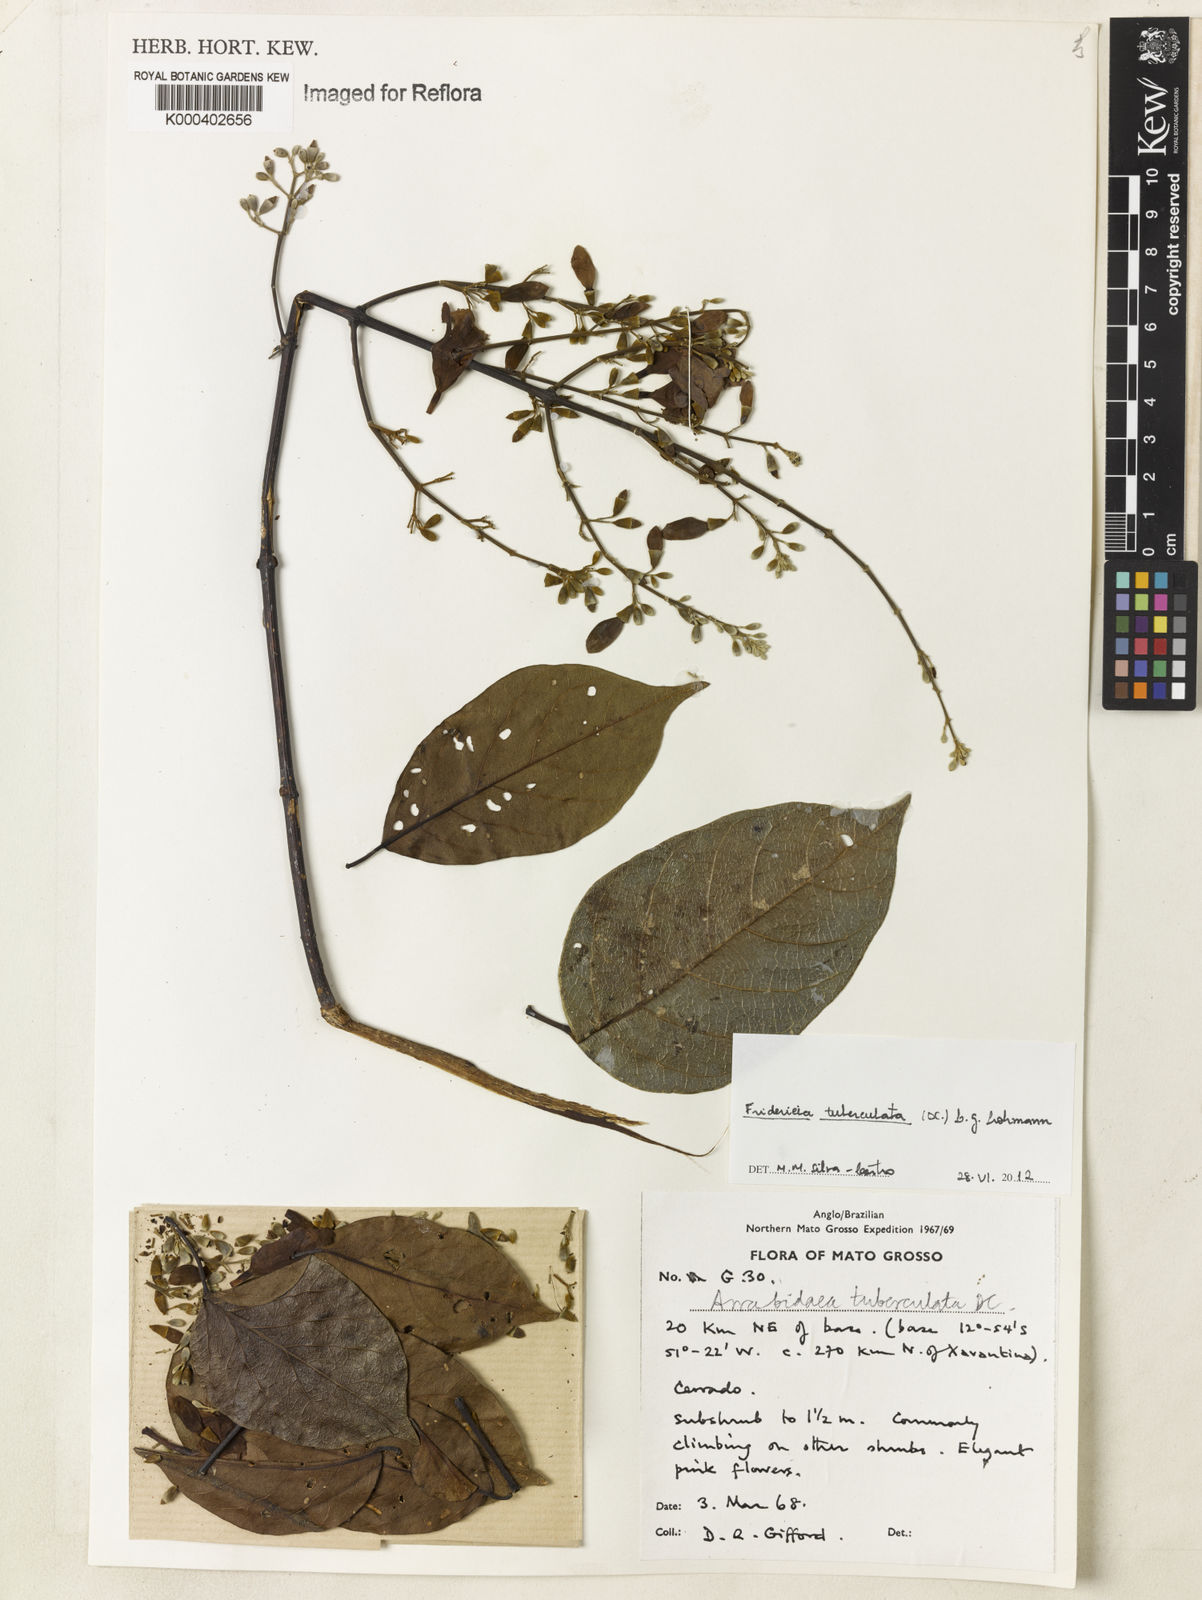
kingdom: Plantae
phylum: Tracheophyta
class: Magnoliopsida
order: Lamiales
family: Bignoniaceae
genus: Fridericia
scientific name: Fridericia tuberculata
